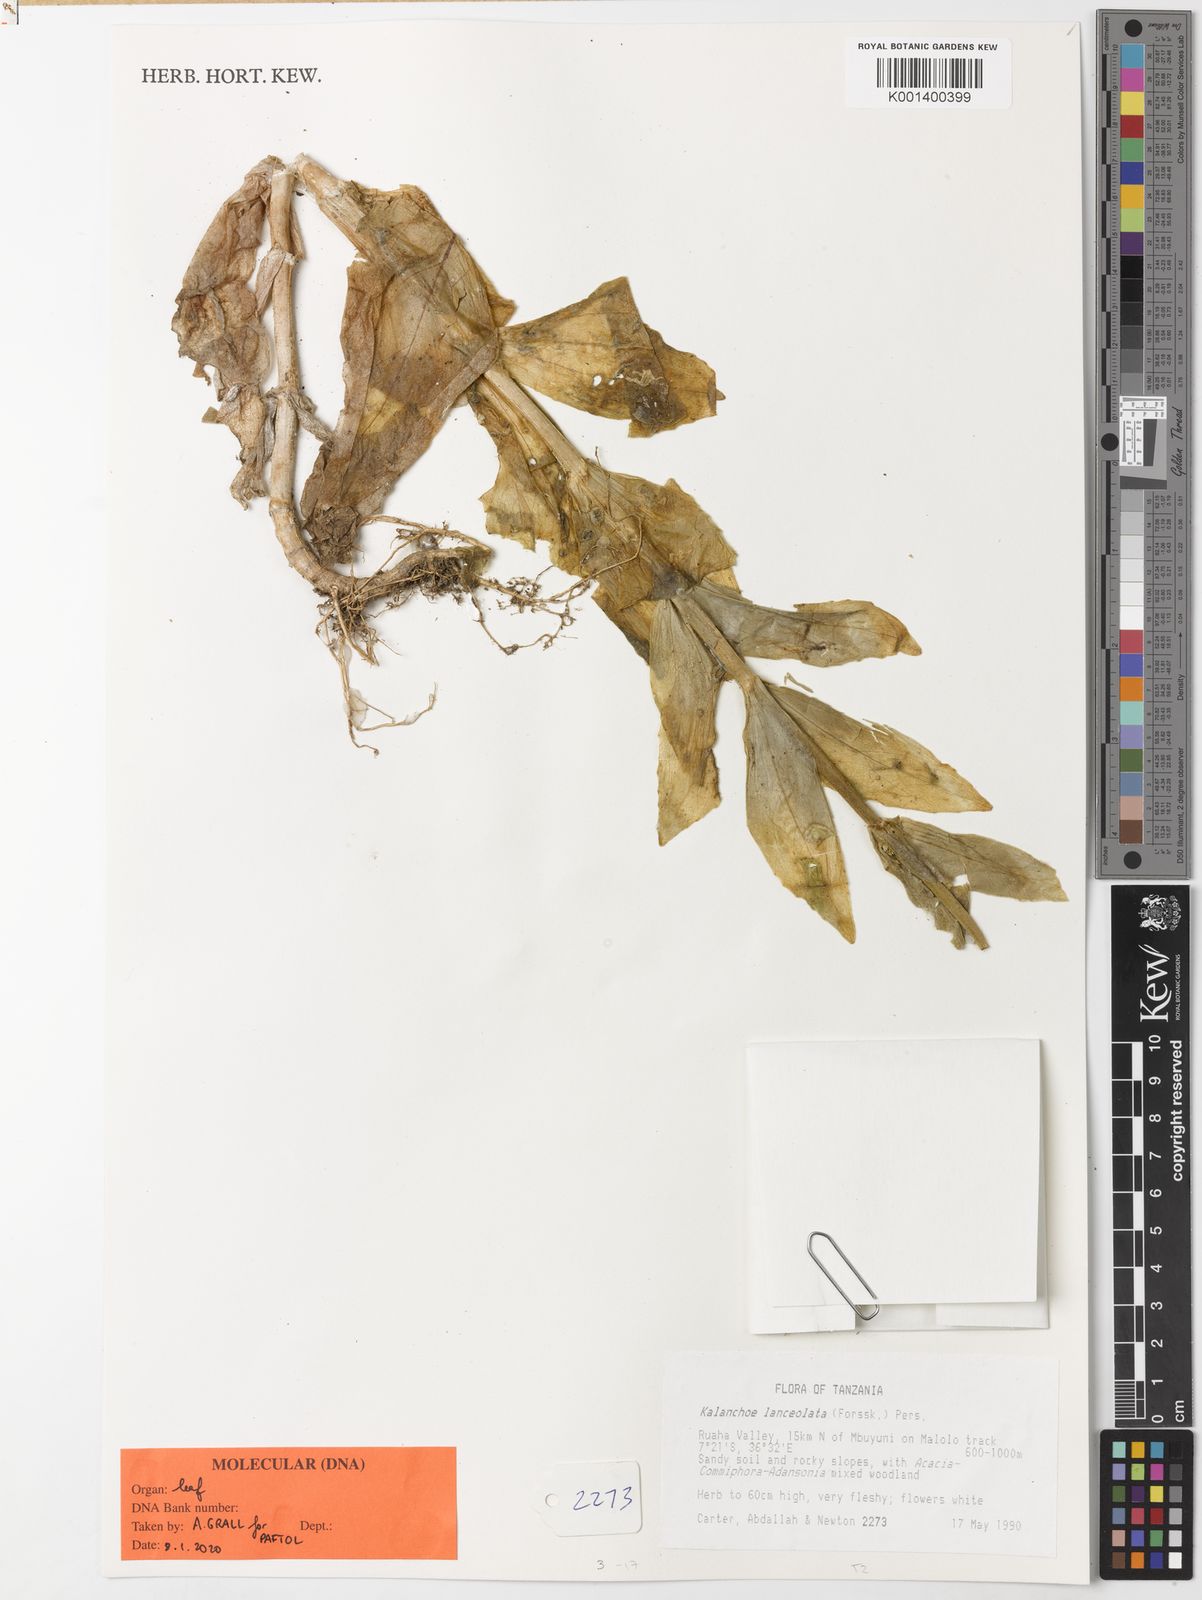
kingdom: Plantae
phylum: Tracheophyta
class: Magnoliopsida
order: Saxifragales
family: Crassulaceae
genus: Kalanchoe
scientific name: Kalanchoe lanceolata
